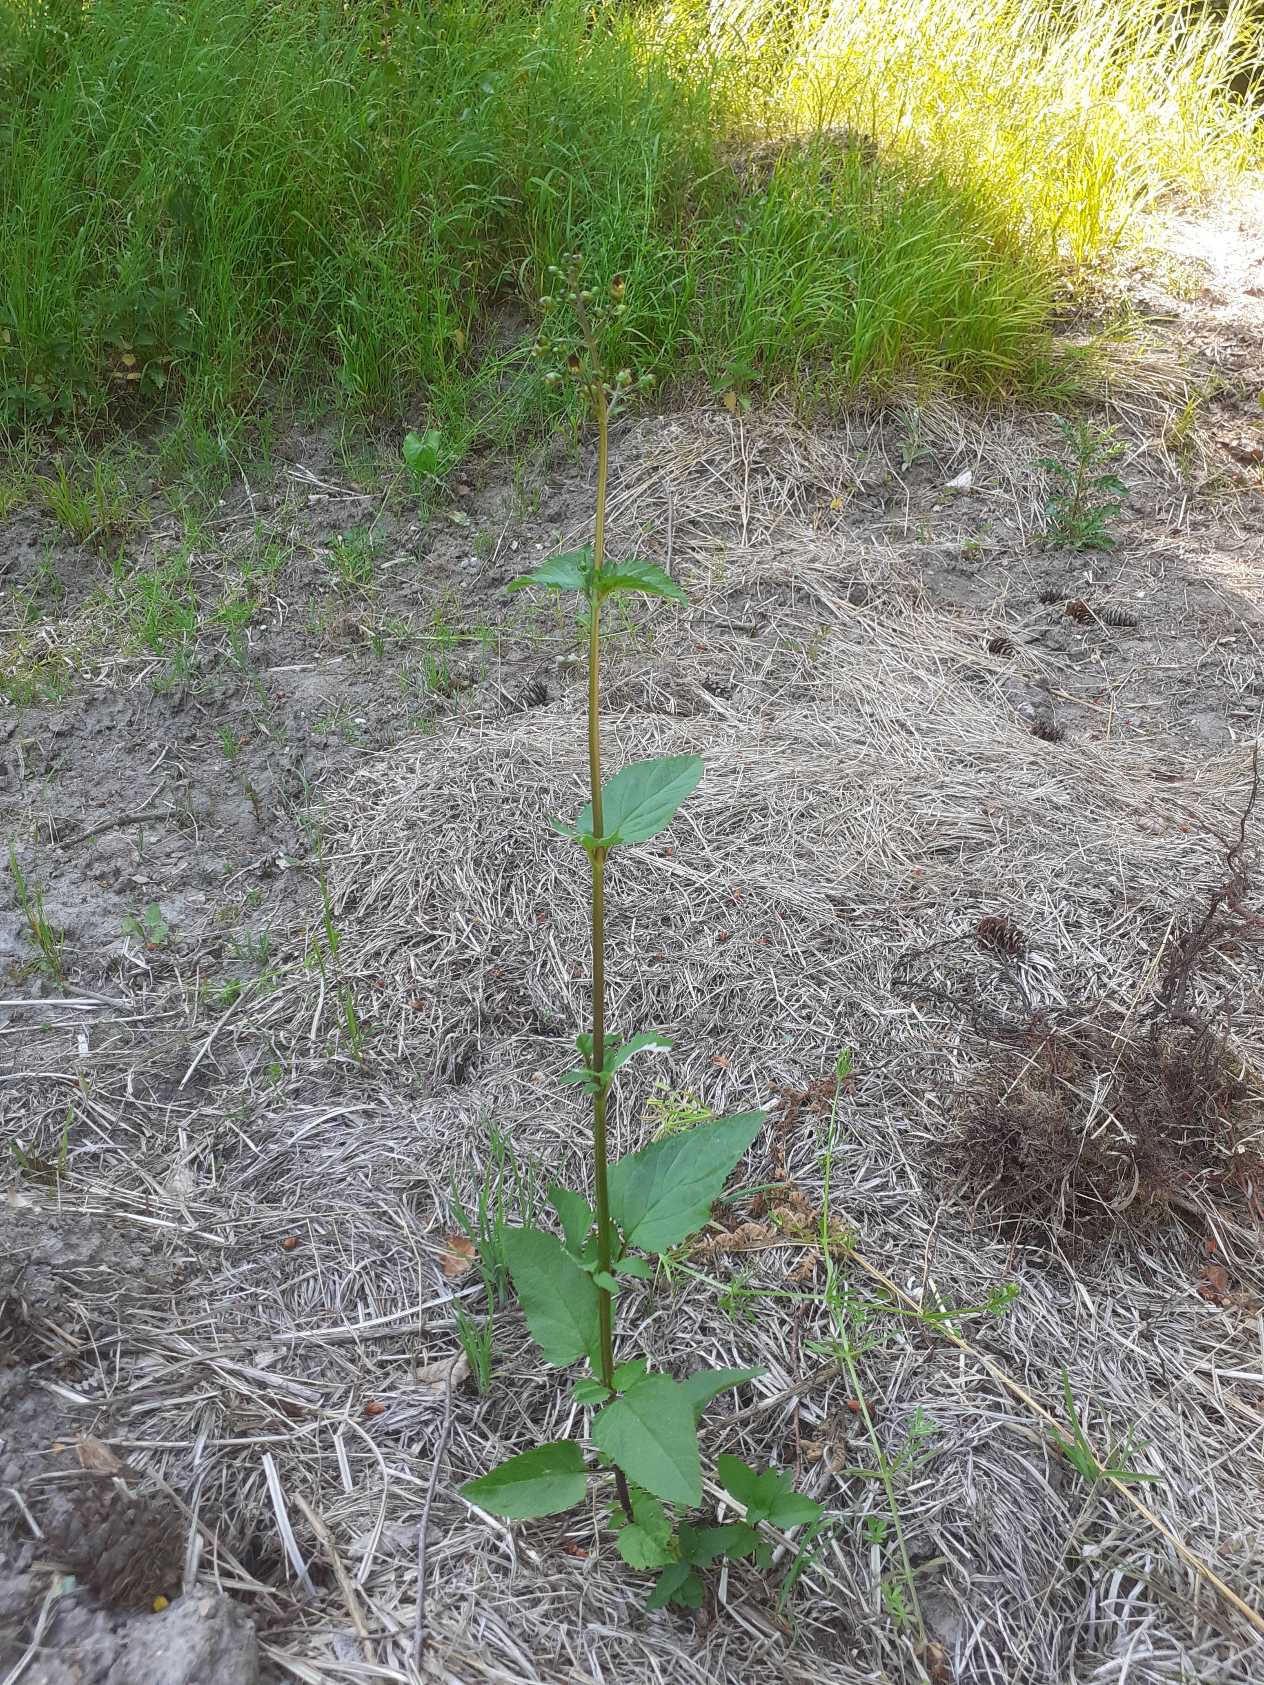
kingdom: Plantae
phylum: Tracheophyta
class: Magnoliopsida
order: Lamiales
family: Scrophulariaceae
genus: Scrophularia
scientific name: Scrophularia nodosa
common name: Knoldet brunrod
